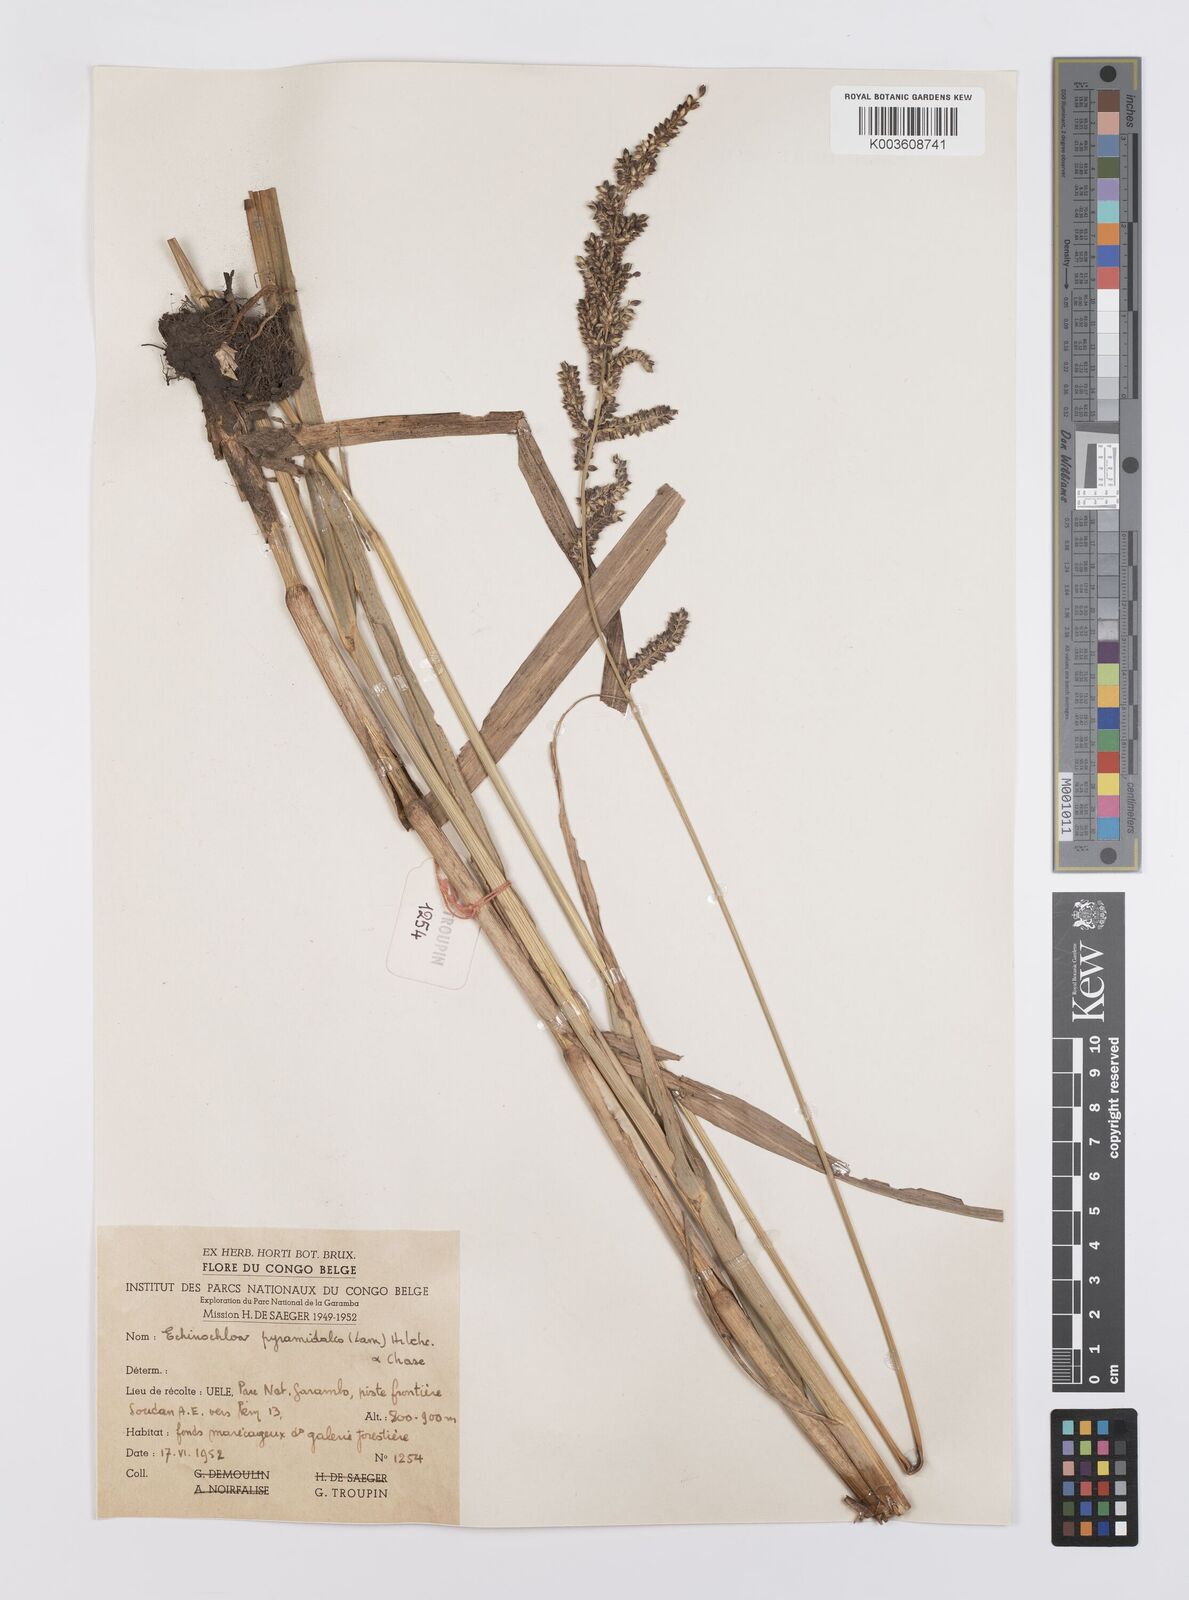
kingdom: Plantae
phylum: Tracheophyta
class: Liliopsida
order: Poales
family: Poaceae
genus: Echinochloa
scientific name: Echinochloa pyramidalis
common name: Antelope grass
